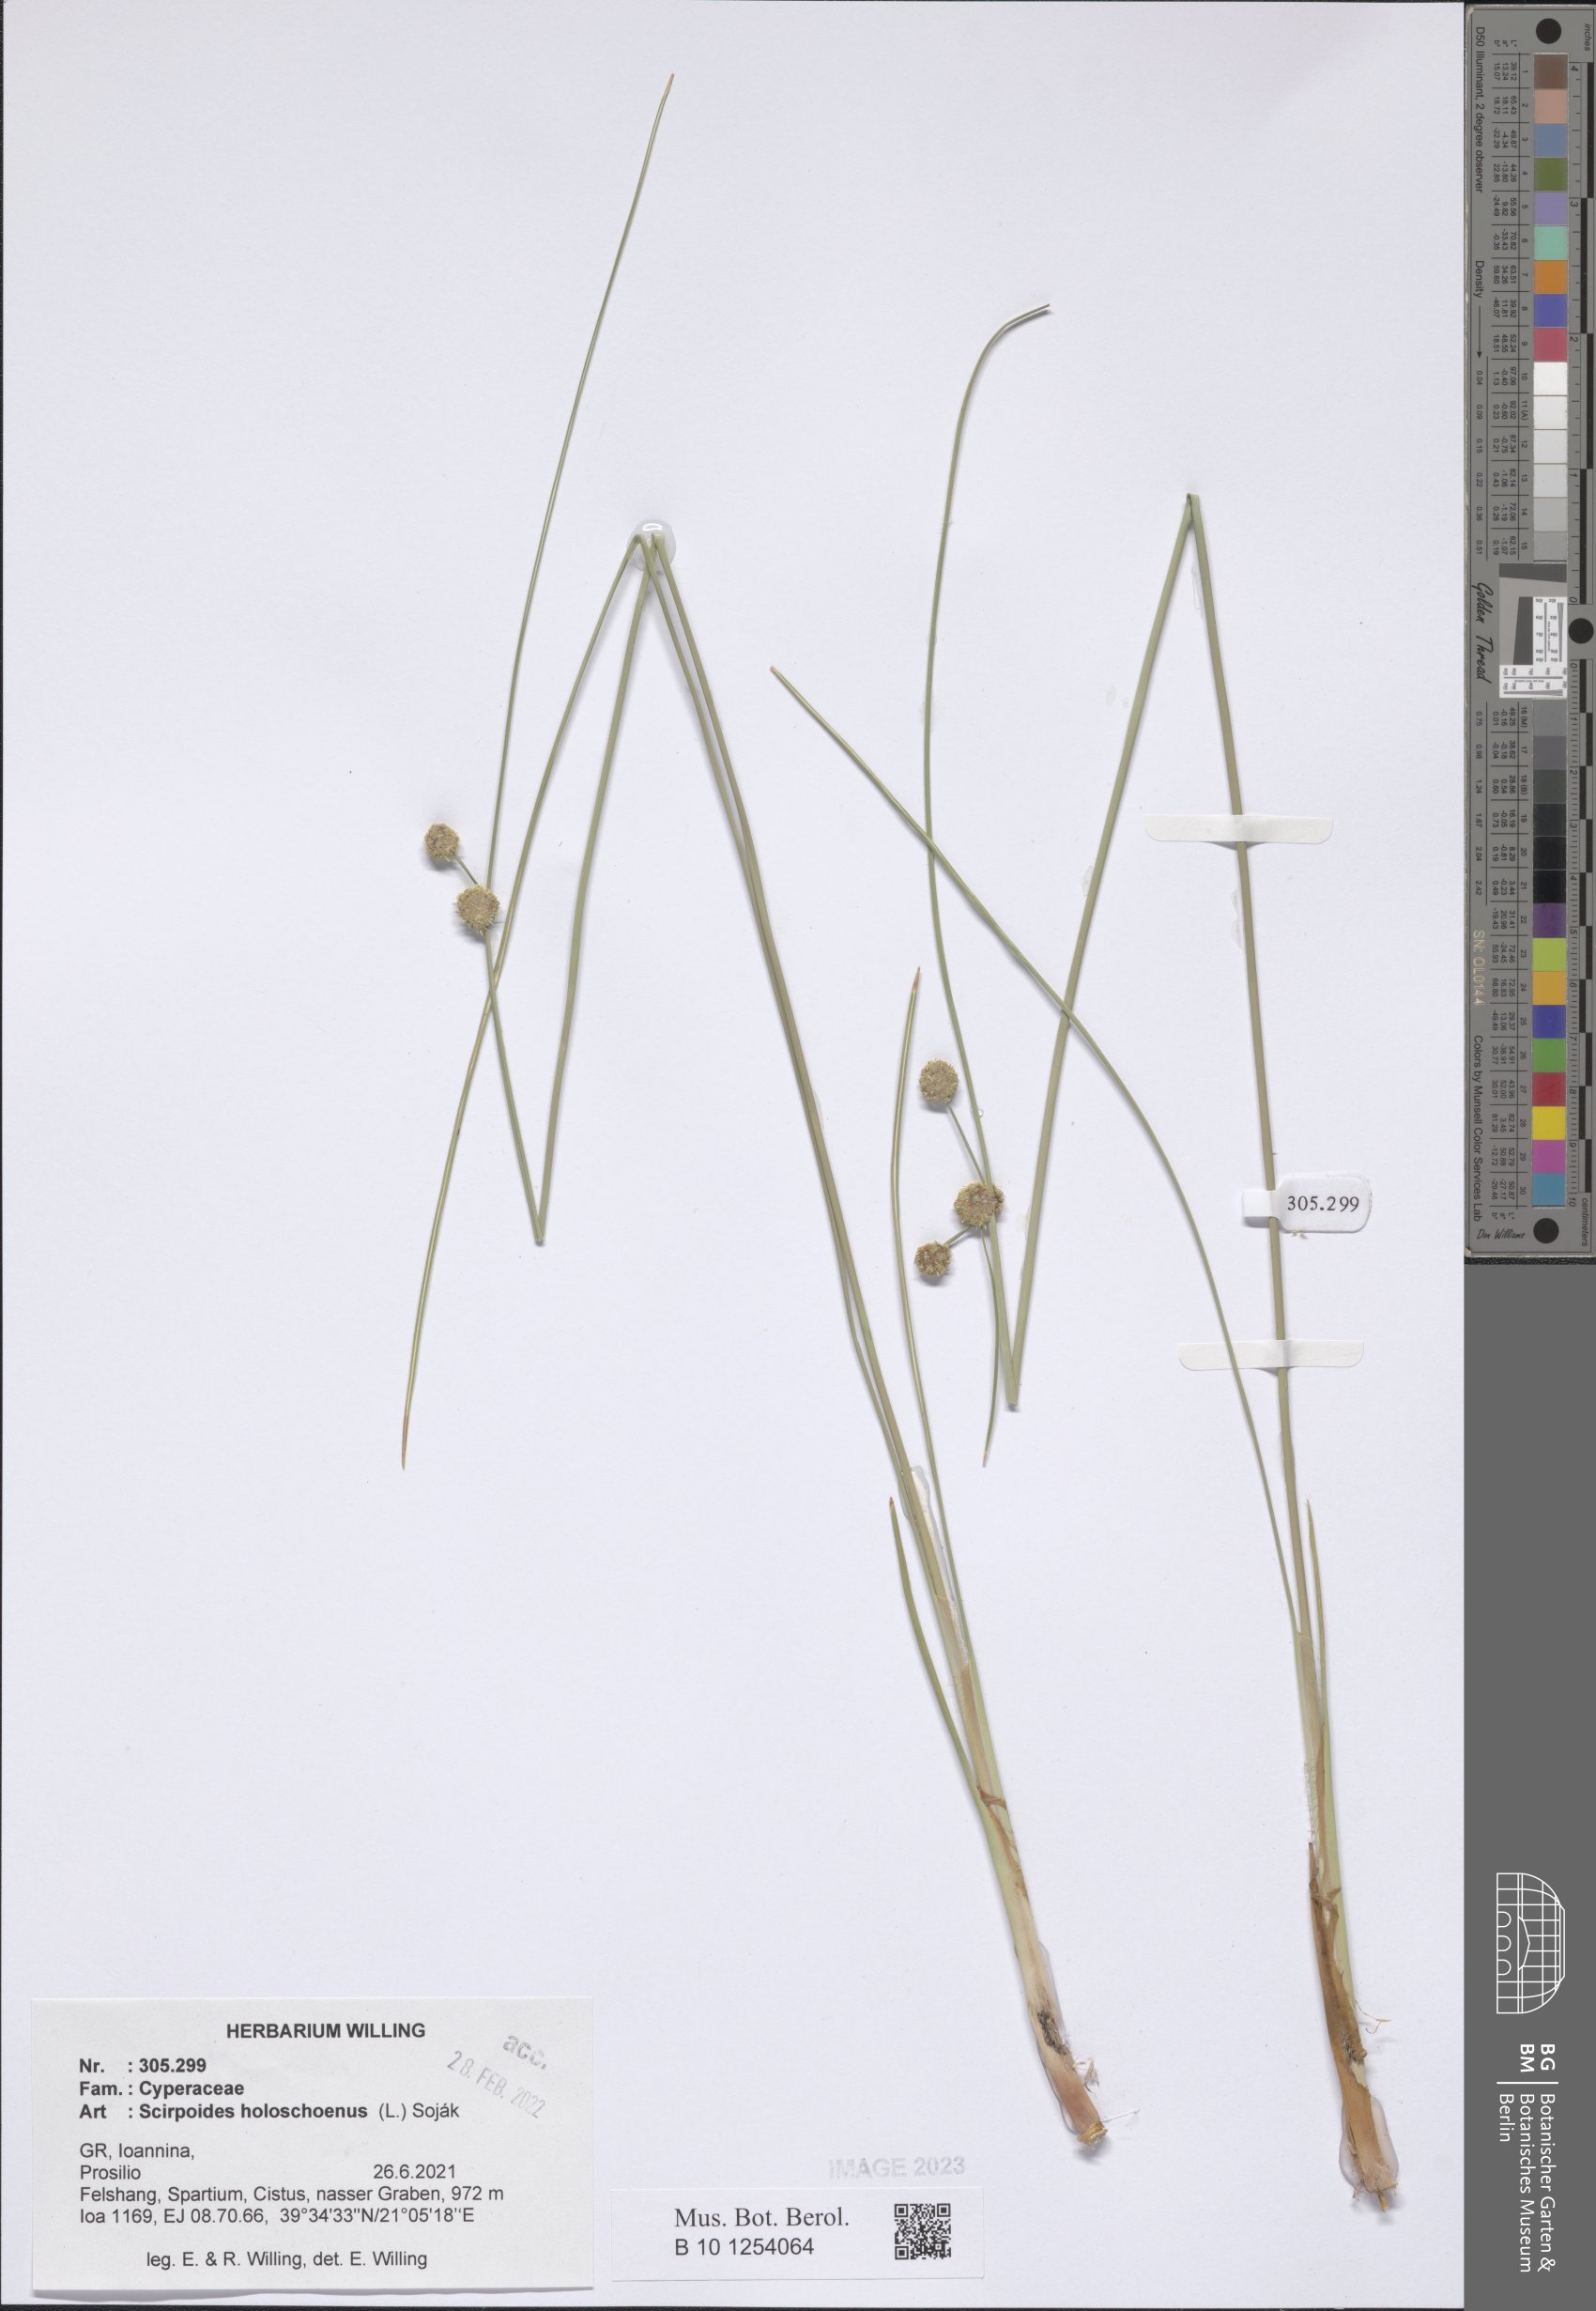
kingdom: Plantae
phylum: Tracheophyta
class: Liliopsida
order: Poales
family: Cyperaceae
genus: Scirpoides
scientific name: Scirpoides
